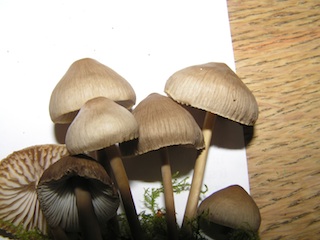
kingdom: Fungi
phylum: Basidiomycota
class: Agaricomycetes
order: Agaricales
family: Mycenaceae
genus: Mycena
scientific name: Mycena galericulata
